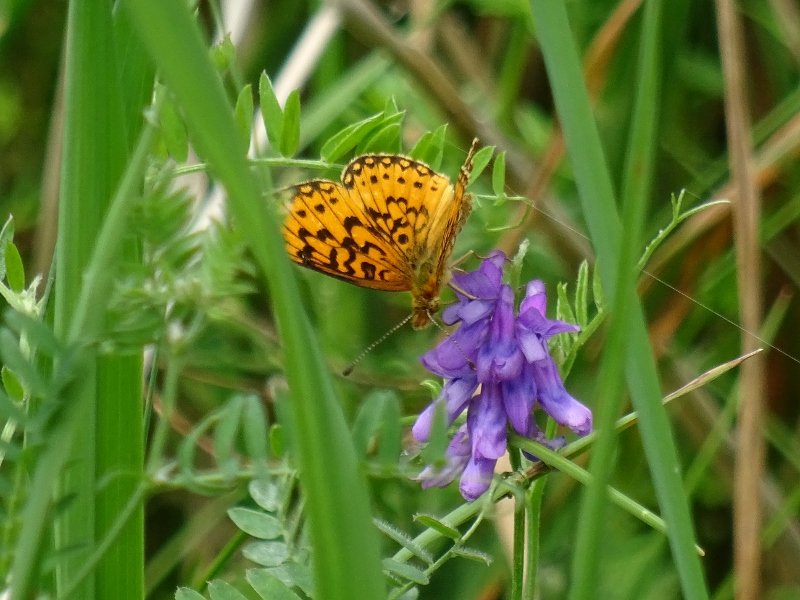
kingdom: Animalia
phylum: Arthropoda
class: Insecta
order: Lepidoptera
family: Nymphalidae
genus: Boloria
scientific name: Boloria selene
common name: Silver-bordered Fritillary
